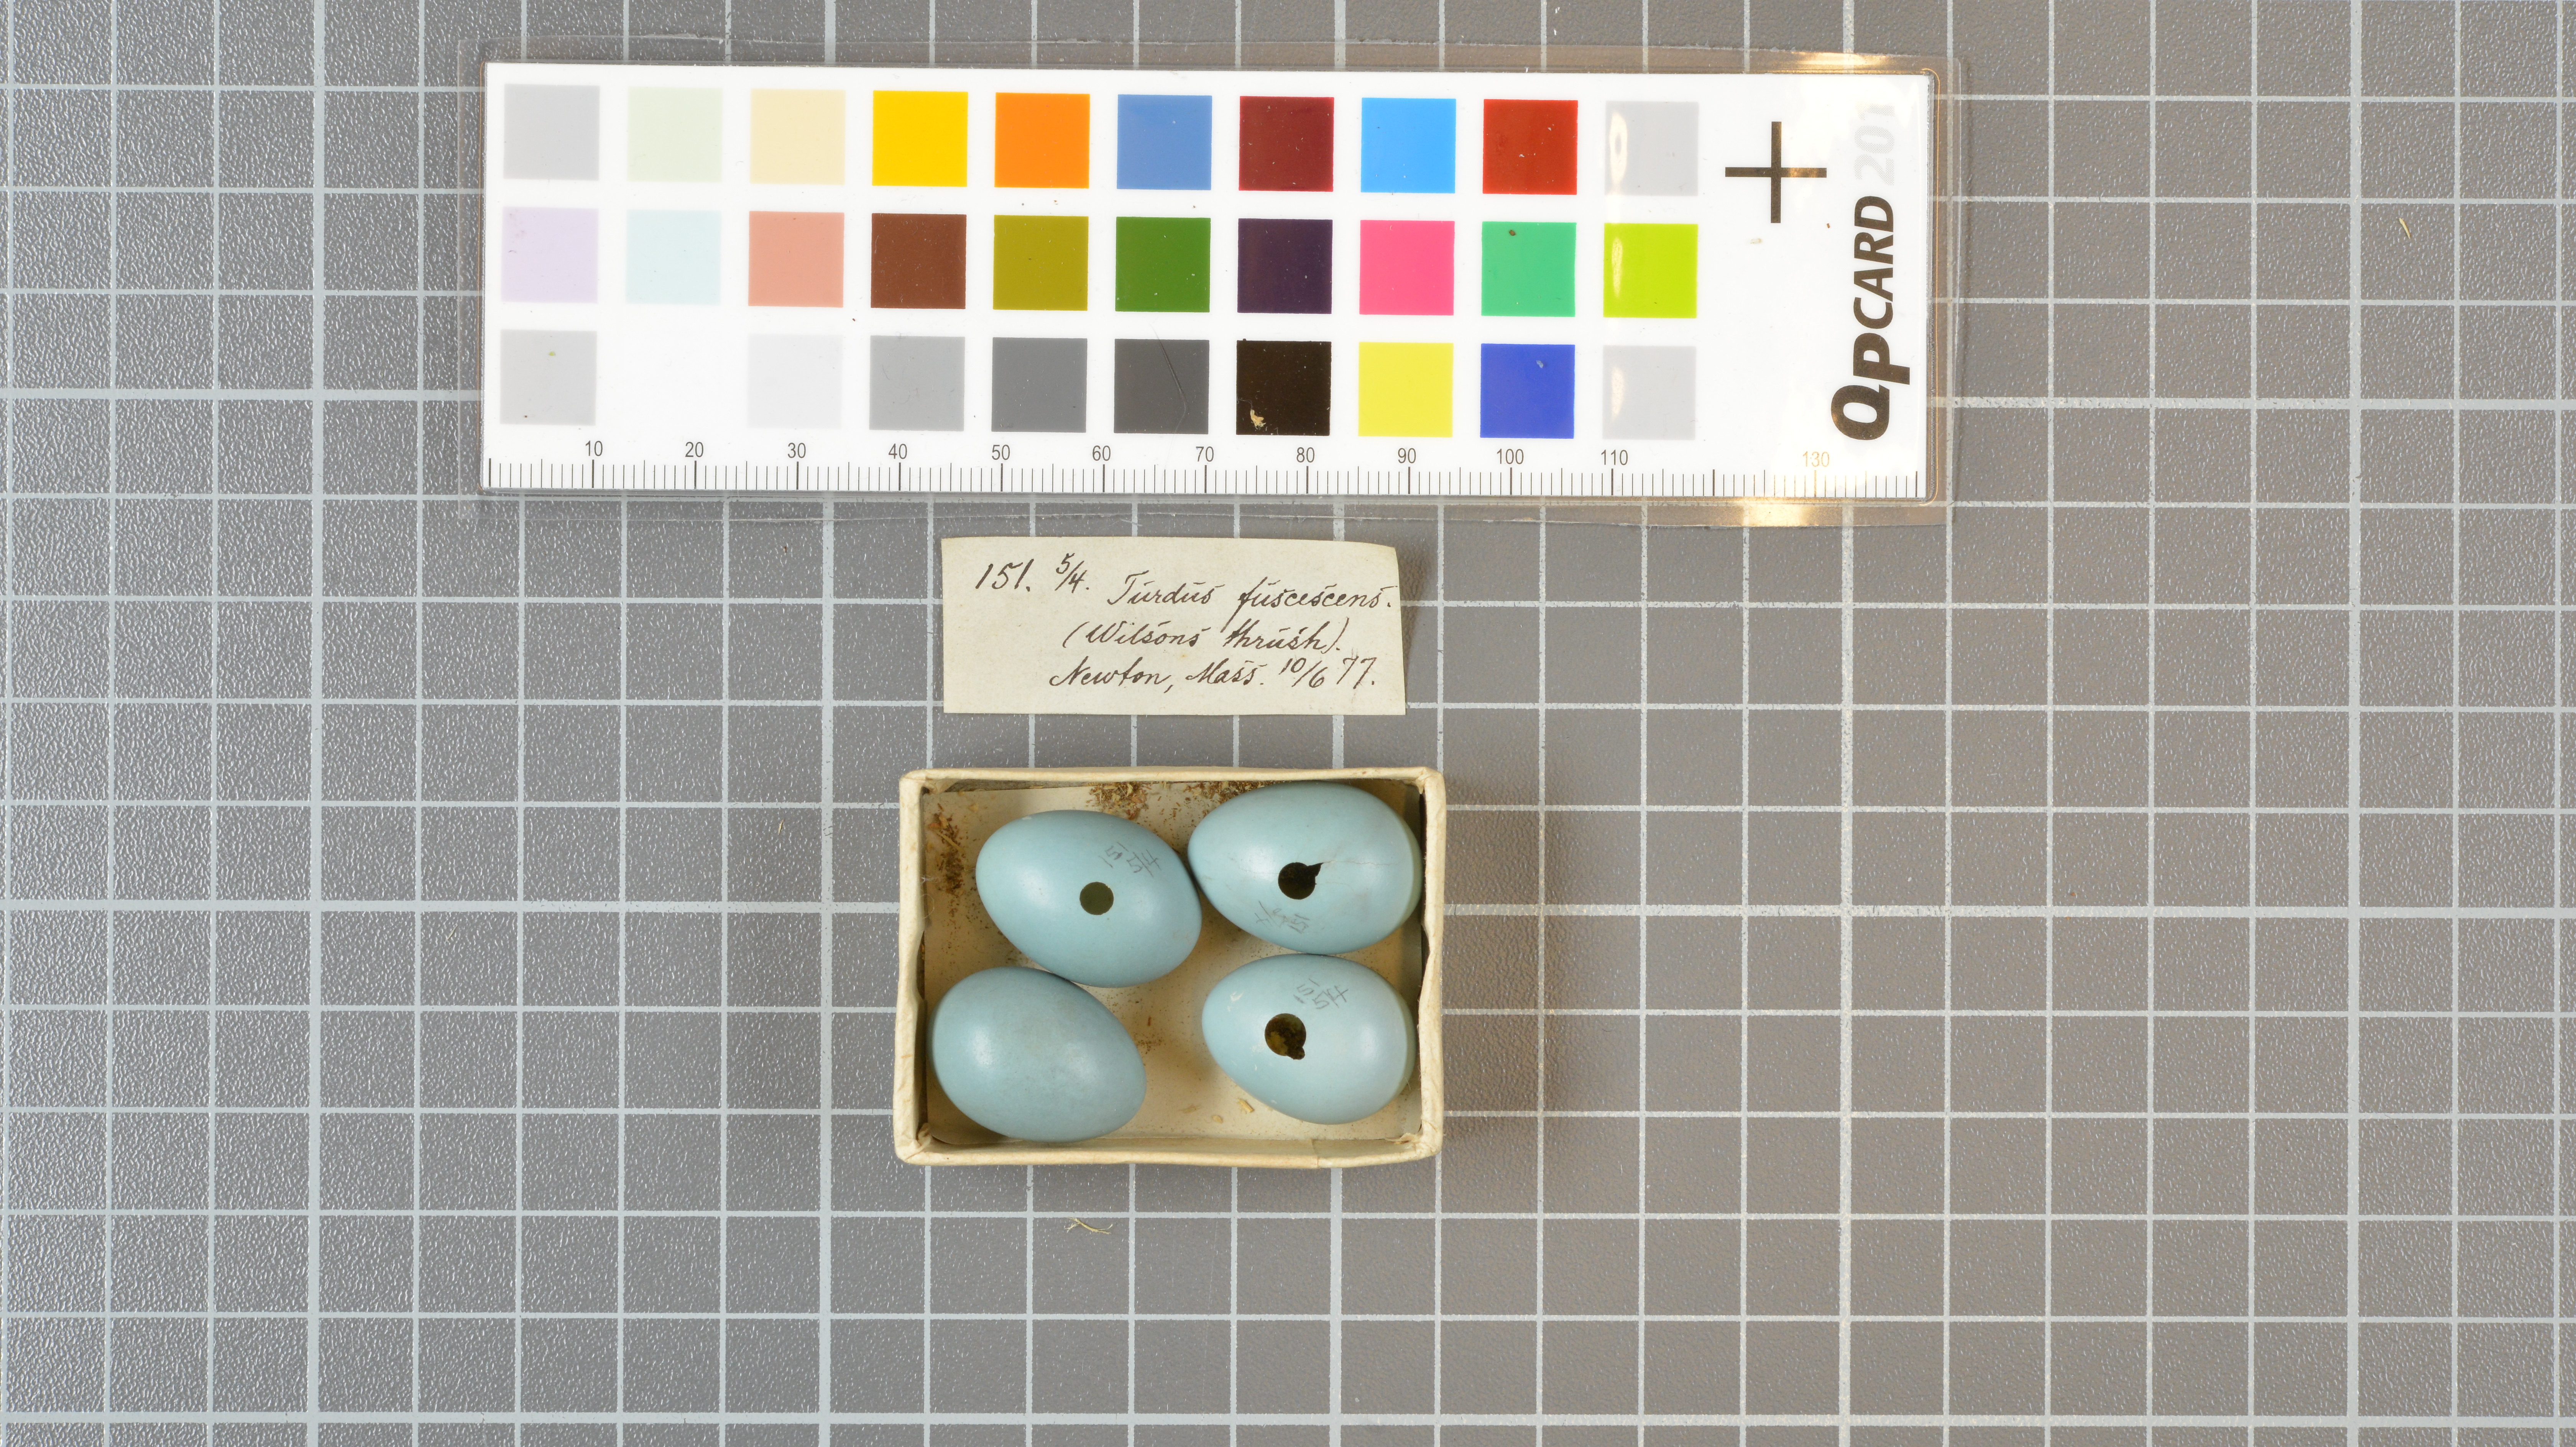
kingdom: Animalia
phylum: Chordata
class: Aves
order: Passeriformes
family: Turdidae
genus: Catharus
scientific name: Catharus fuscescens
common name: Veery
